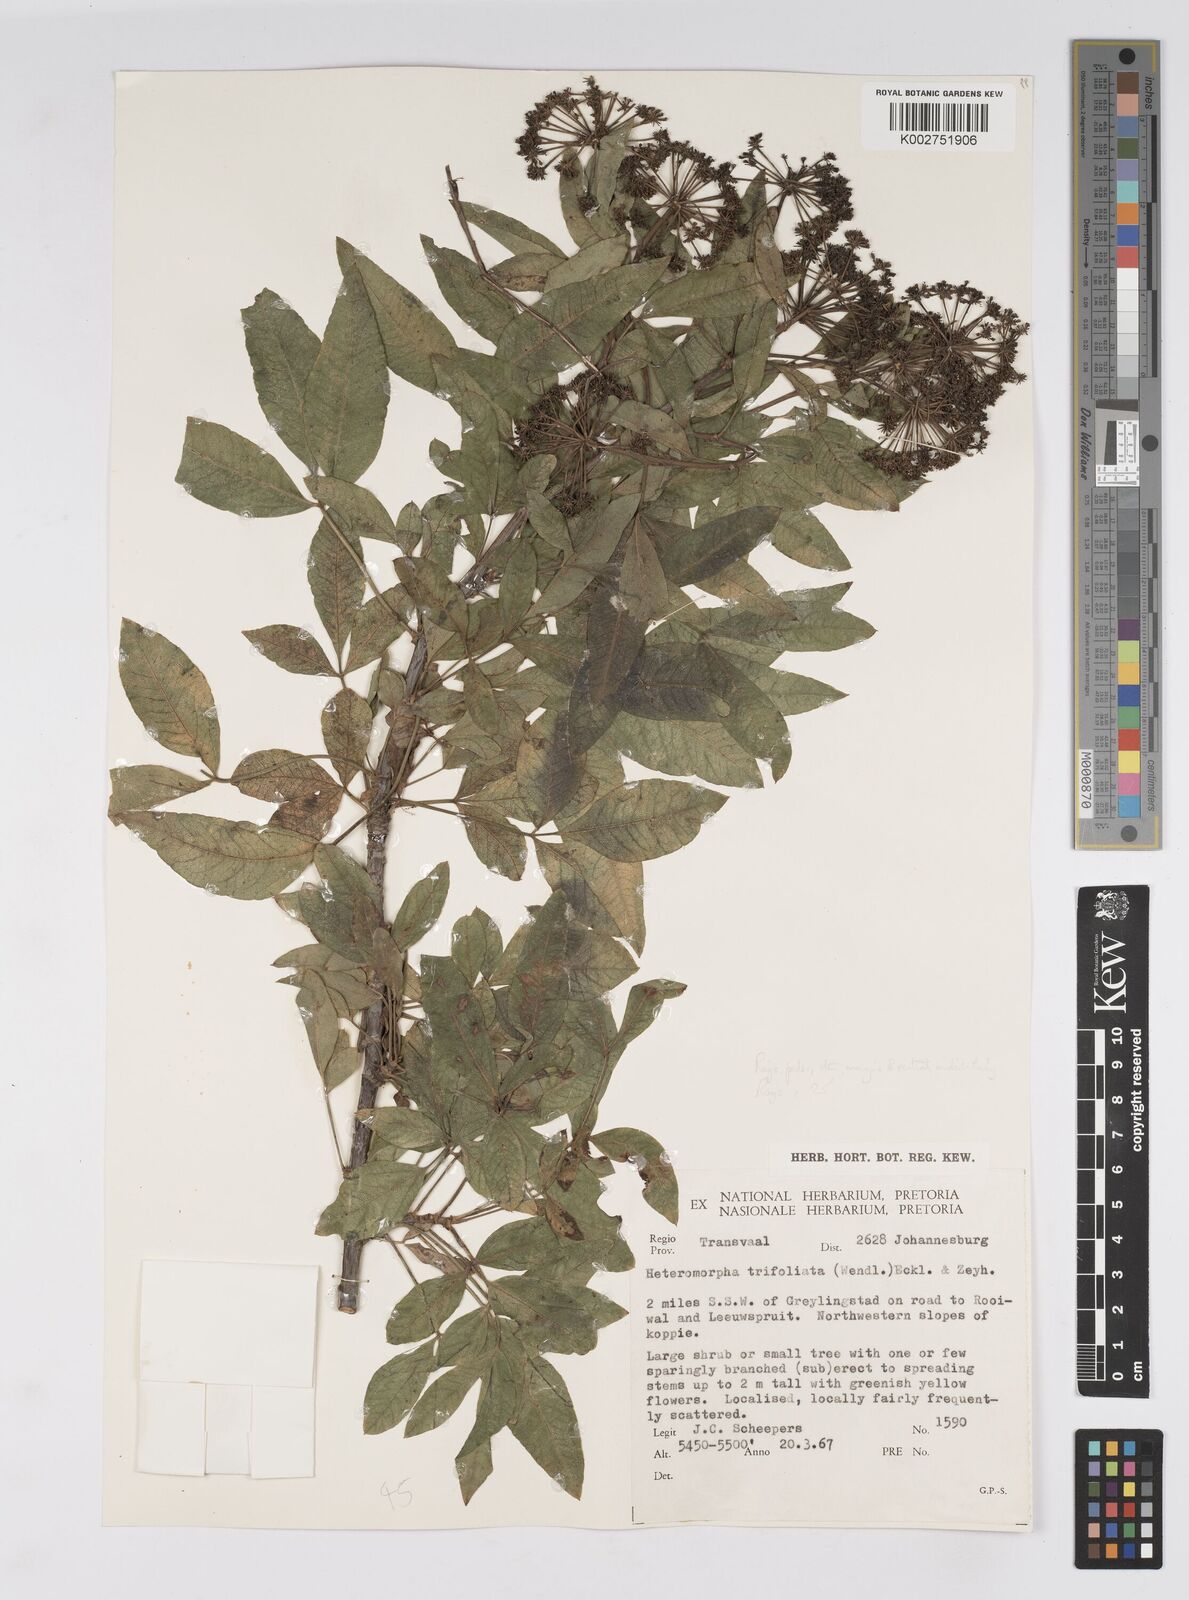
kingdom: Plantae
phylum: Tracheophyta
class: Magnoliopsida
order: Apiales
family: Apiaceae
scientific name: Apiaceae
